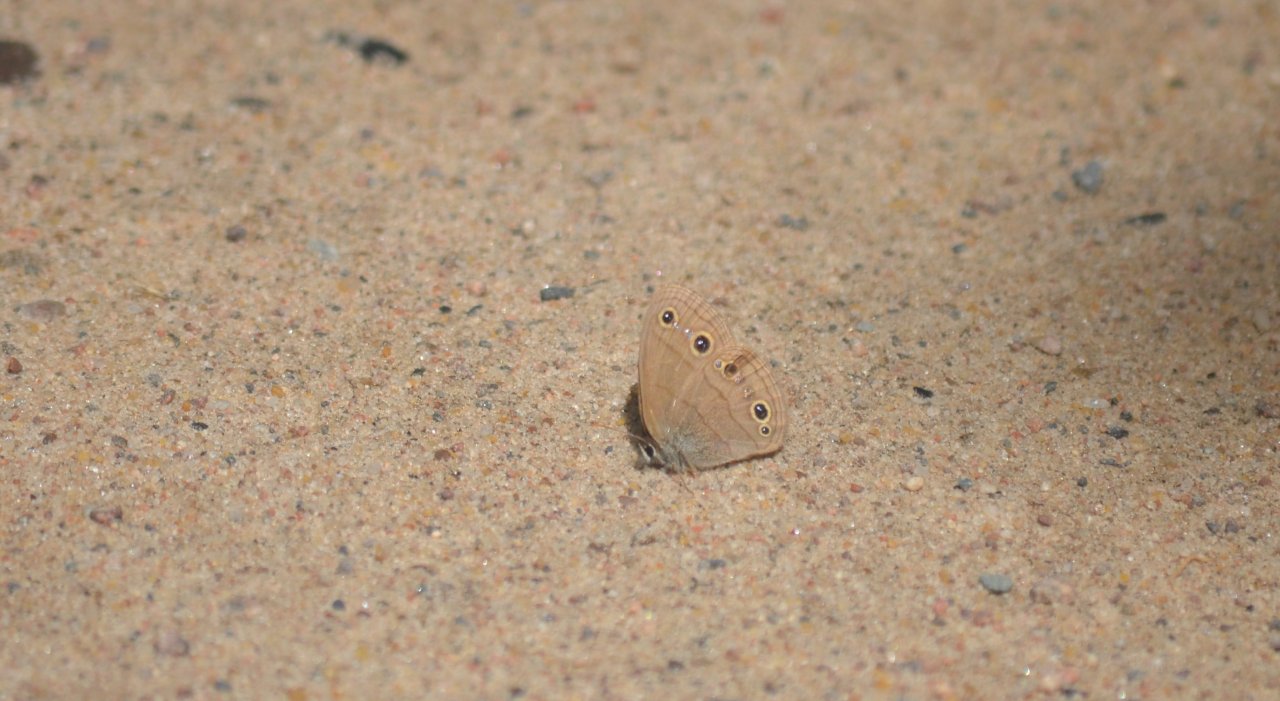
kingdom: Animalia
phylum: Arthropoda
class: Insecta
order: Lepidoptera
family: Nymphalidae
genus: Euptychia
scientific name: Euptychia cymela
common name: Little Wood Satyr
